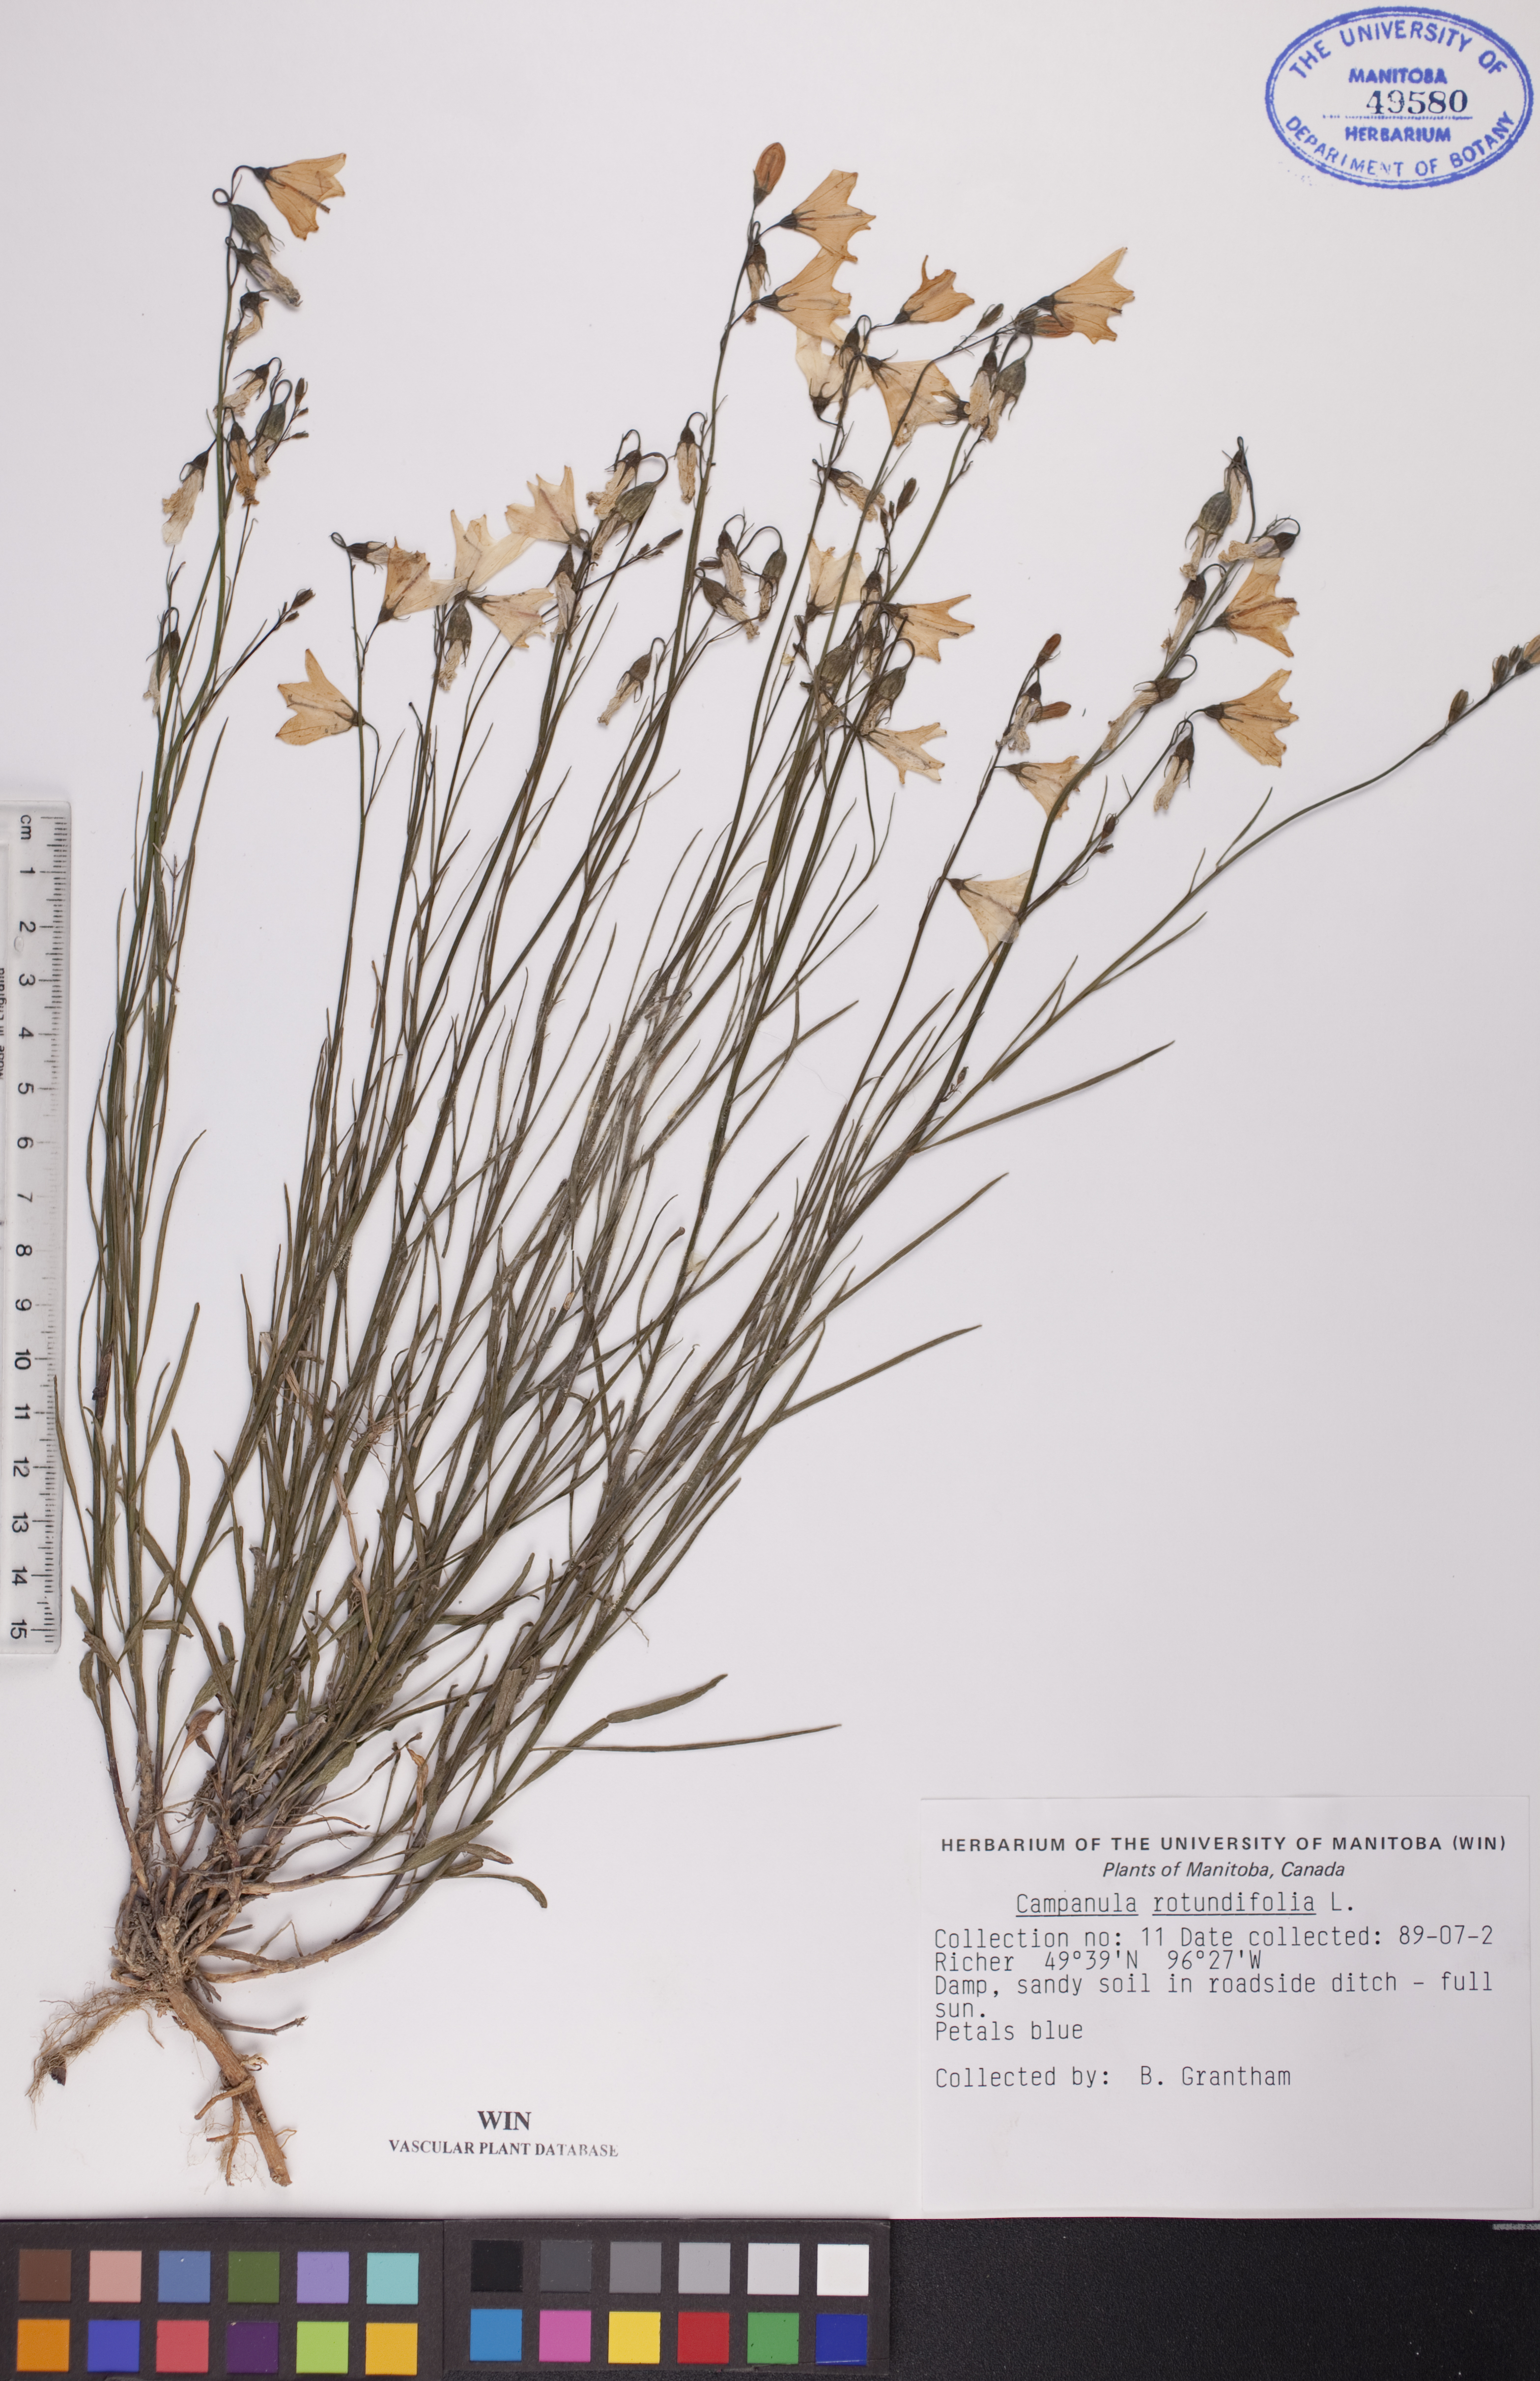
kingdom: Plantae
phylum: Tracheophyta
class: Magnoliopsida
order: Asterales
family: Campanulaceae
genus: Campanula
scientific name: Campanula rotundifolia
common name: Harebell
